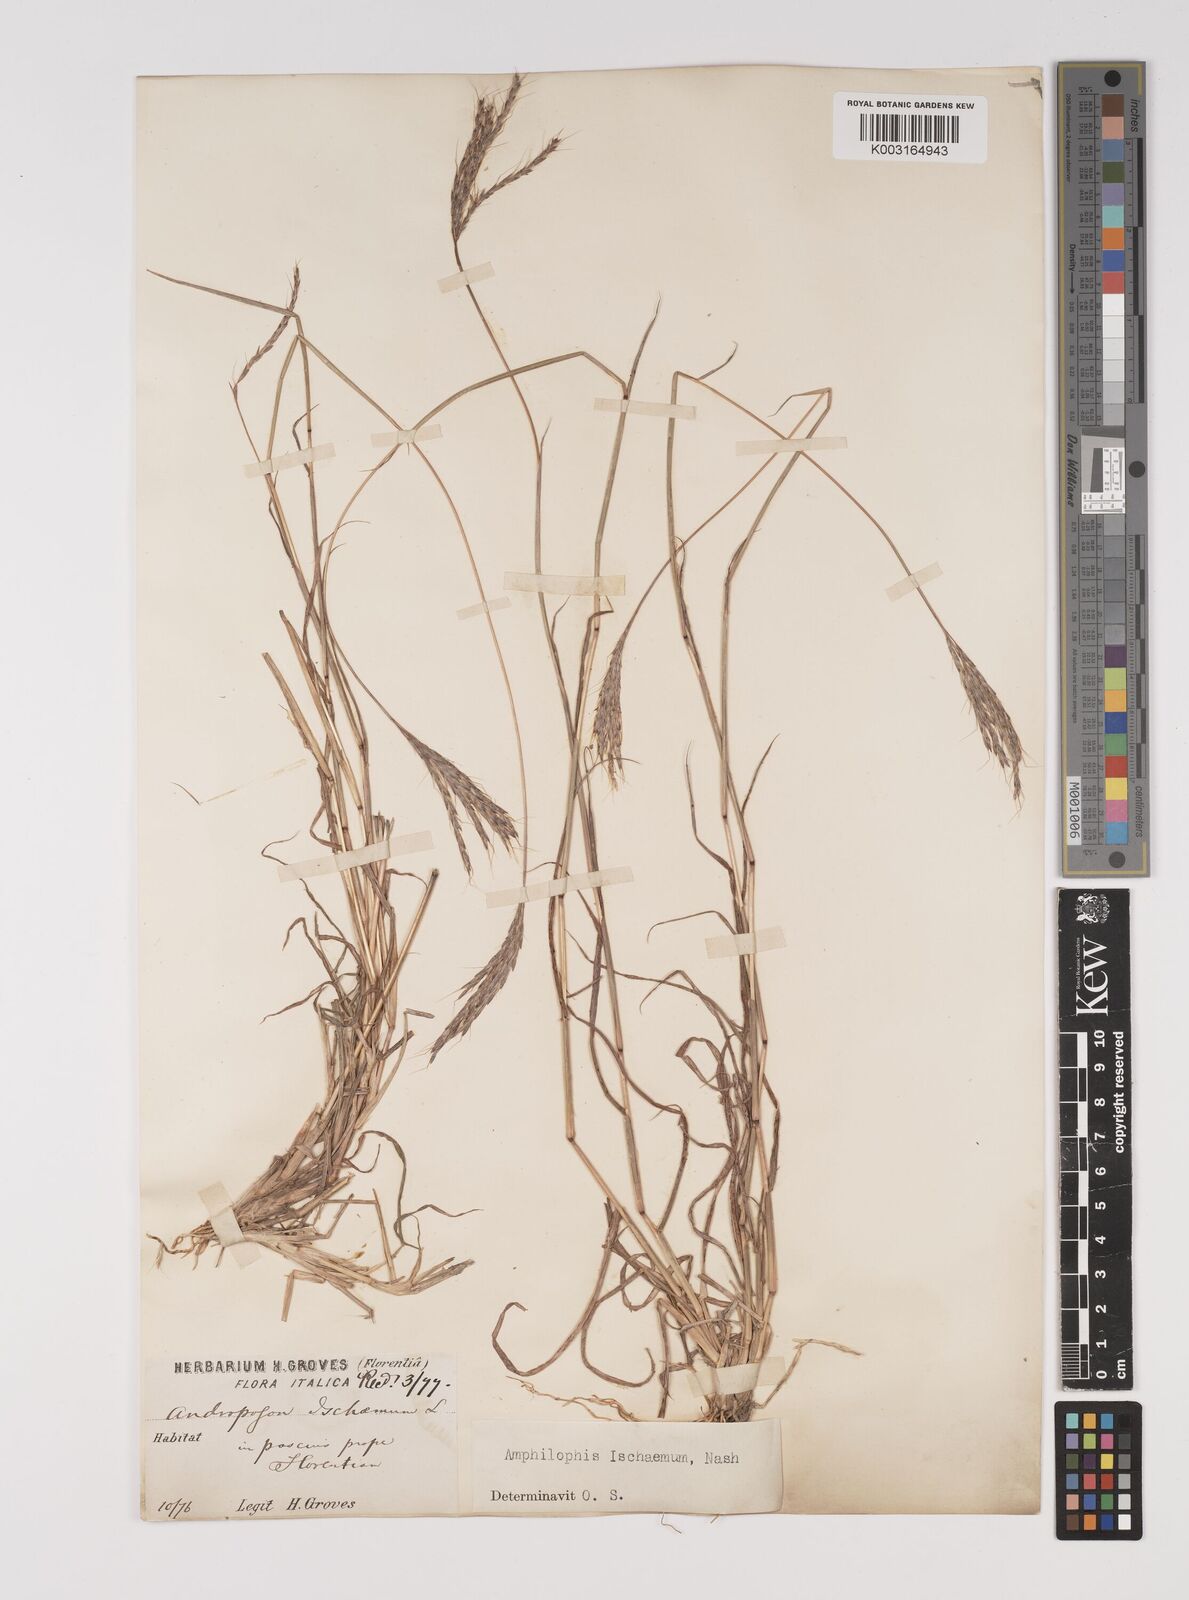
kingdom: Plantae
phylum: Tracheophyta
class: Liliopsida
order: Poales
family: Poaceae
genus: Bothriochloa
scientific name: Bothriochloa ischaemum
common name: Yellow bluestem
